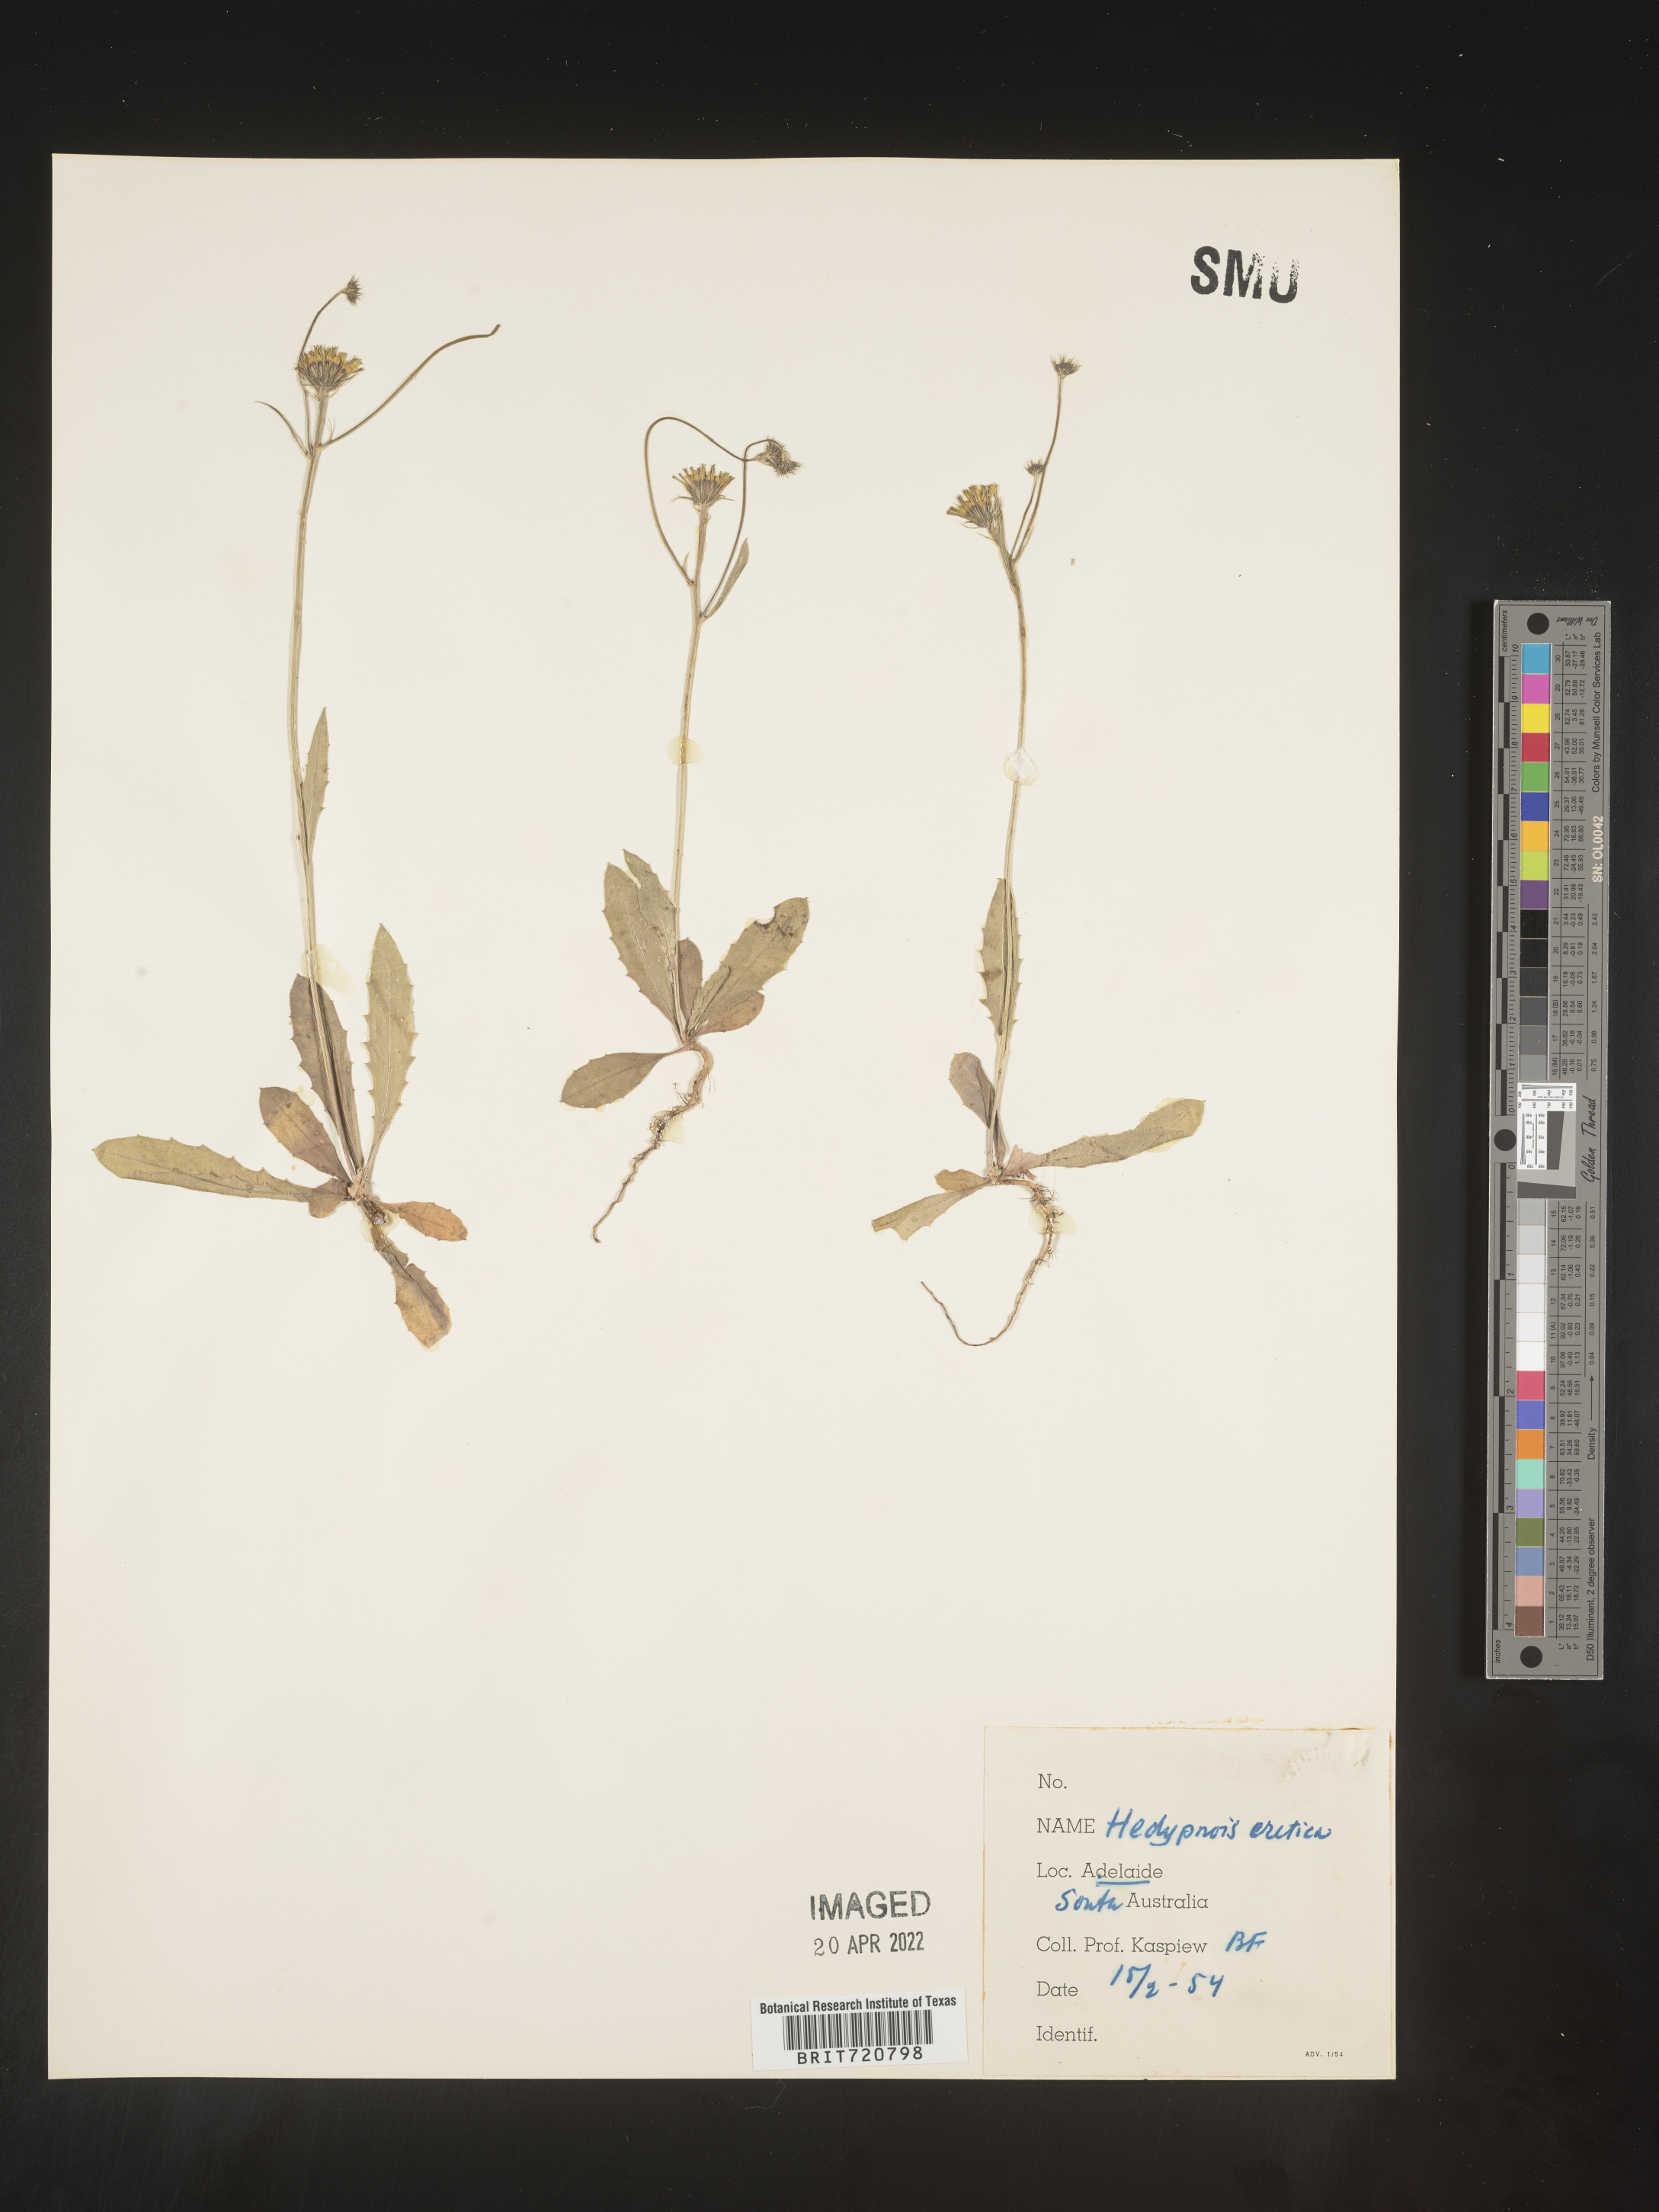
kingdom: Plantae
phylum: Tracheophyta
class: Magnoliopsida
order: Asterales
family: Asteraceae
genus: Hedypnois
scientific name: Hedypnois
